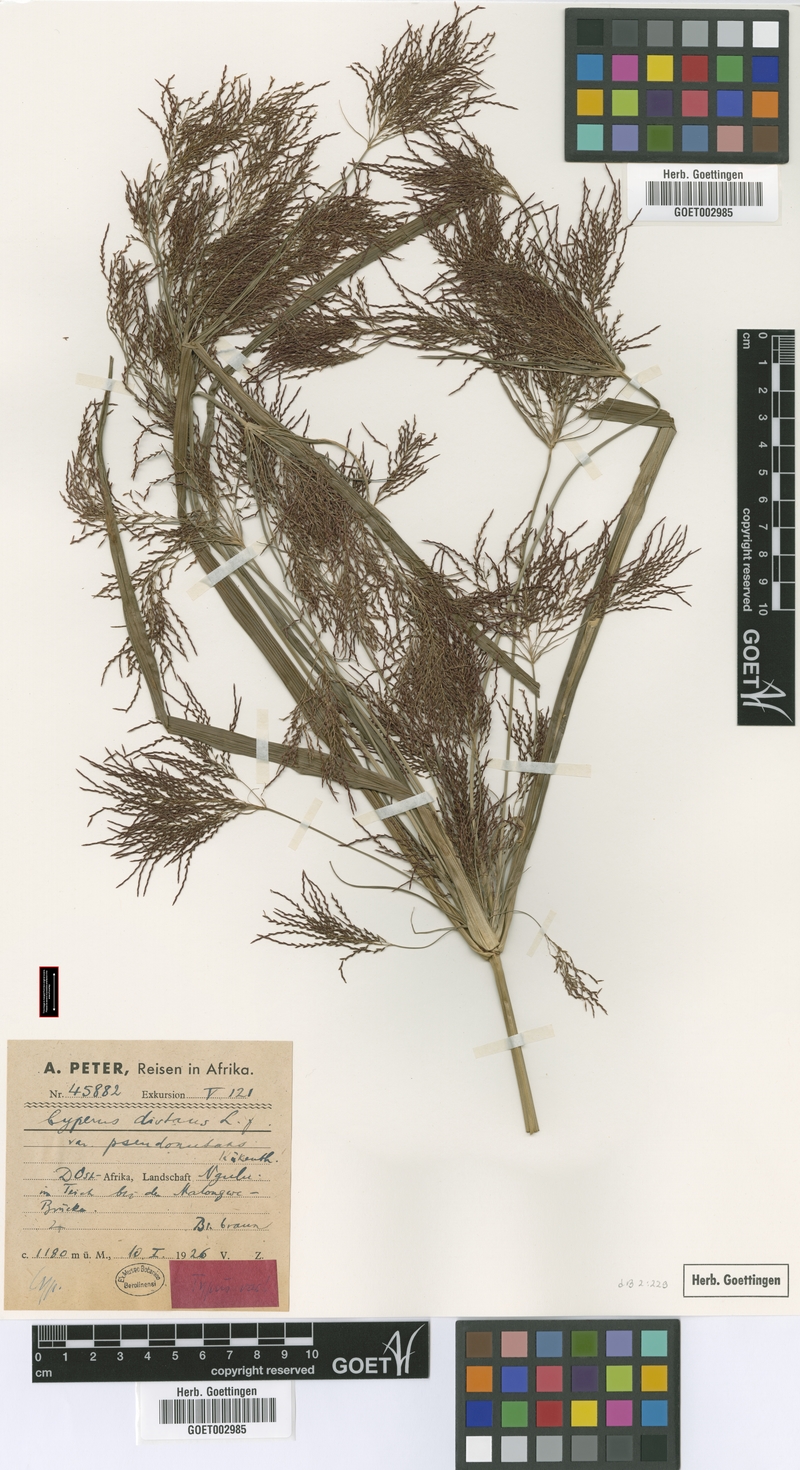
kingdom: Plantae
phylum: Tracheophyta
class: Liliopsida
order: Poales
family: Cyperaceae
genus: Cyperus
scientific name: Cyperus distans
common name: Slender cyperus
